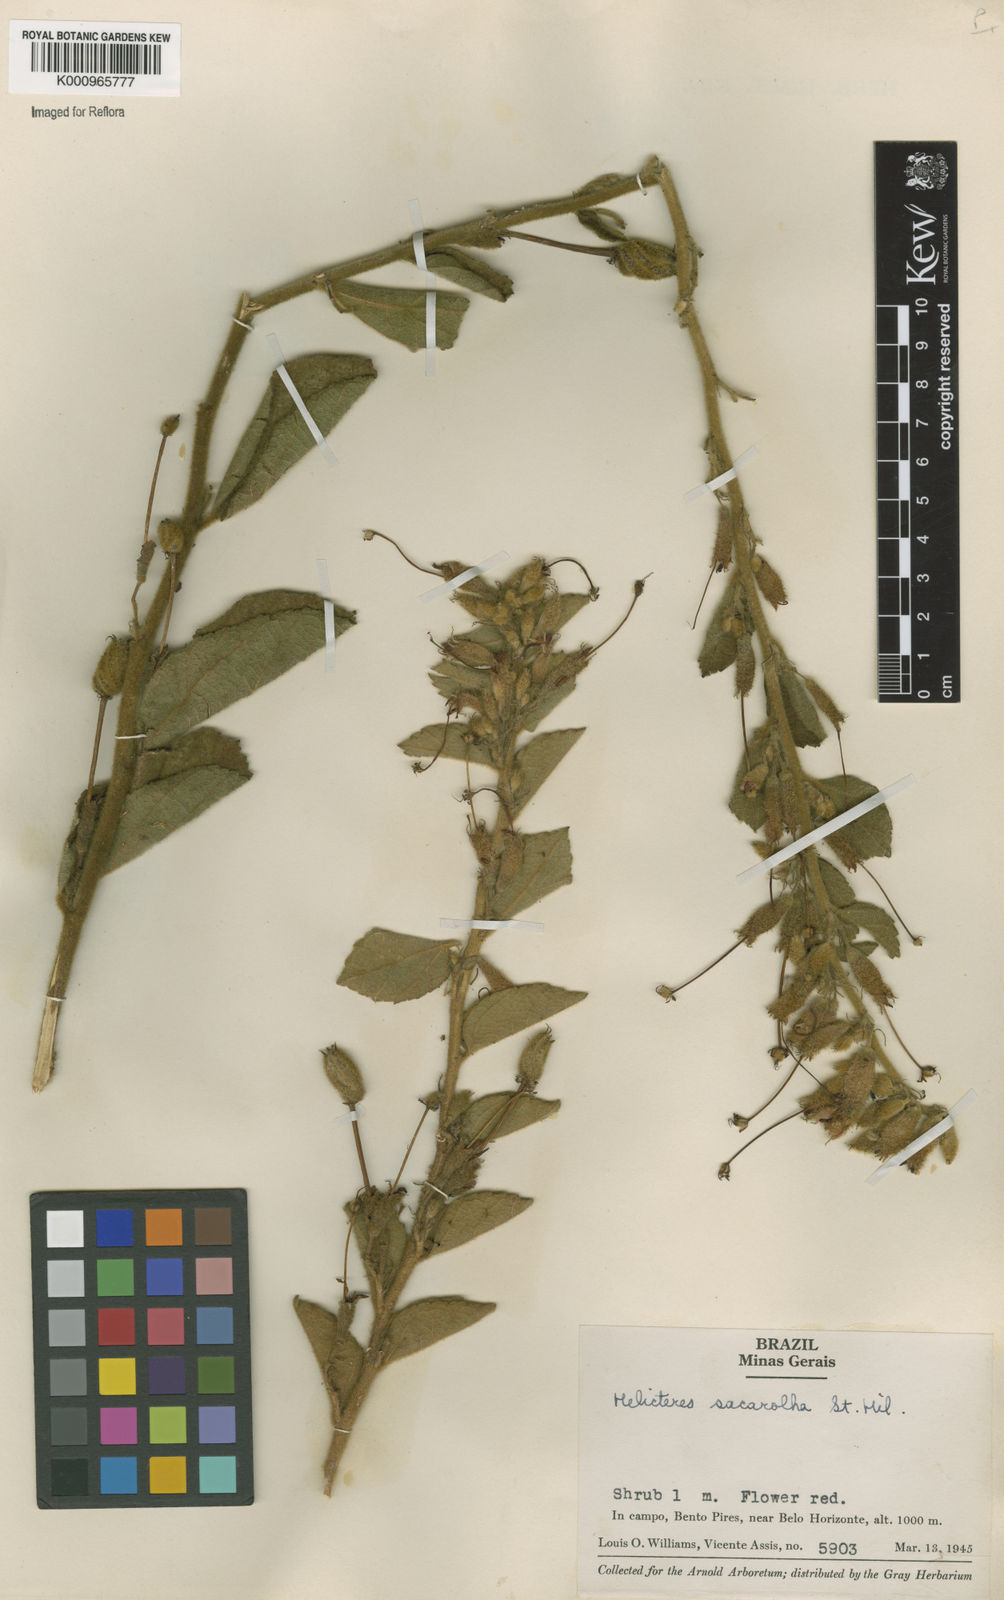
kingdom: Plantae
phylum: Tracheophyta
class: Magnoliopsida
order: Malvales
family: Malvaceae
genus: Helicteres
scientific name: Helicteres
